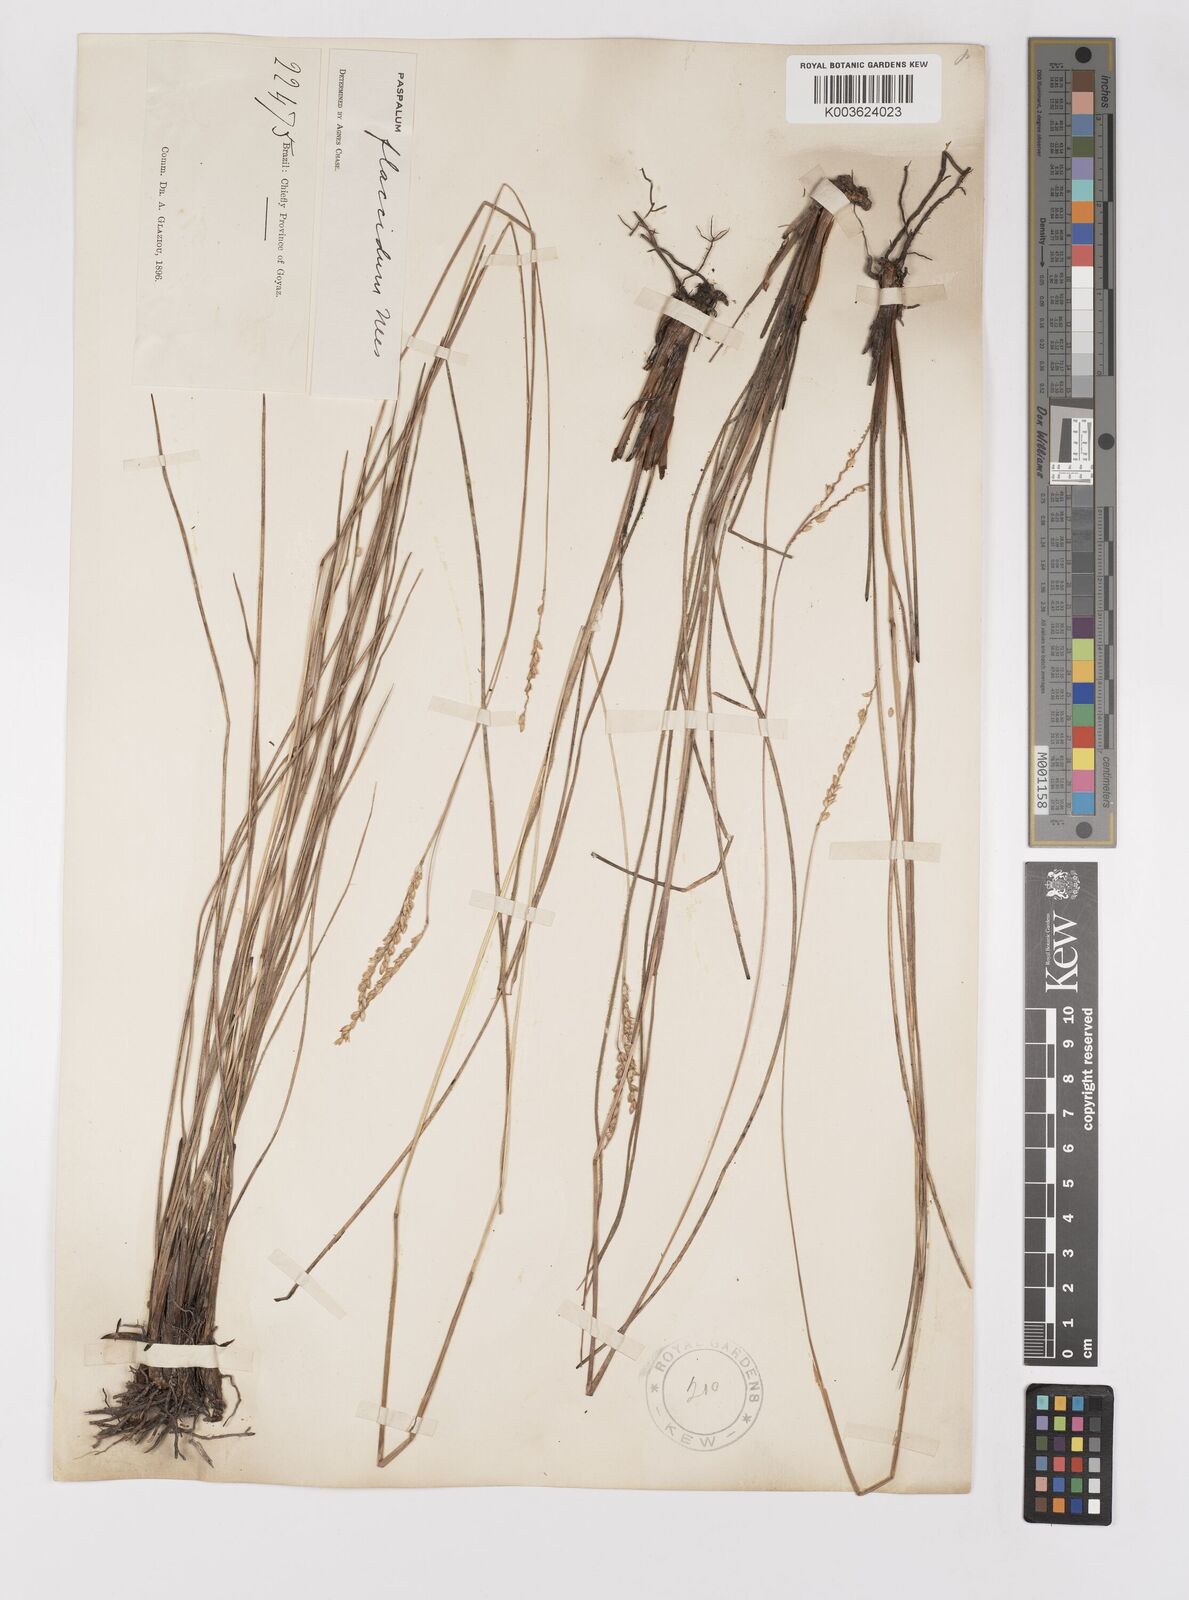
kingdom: Plantae
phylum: Tracheophyta
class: Liliopsida
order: Poales
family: Poaceae
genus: Paspalum
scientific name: Paspalum flaccidum
